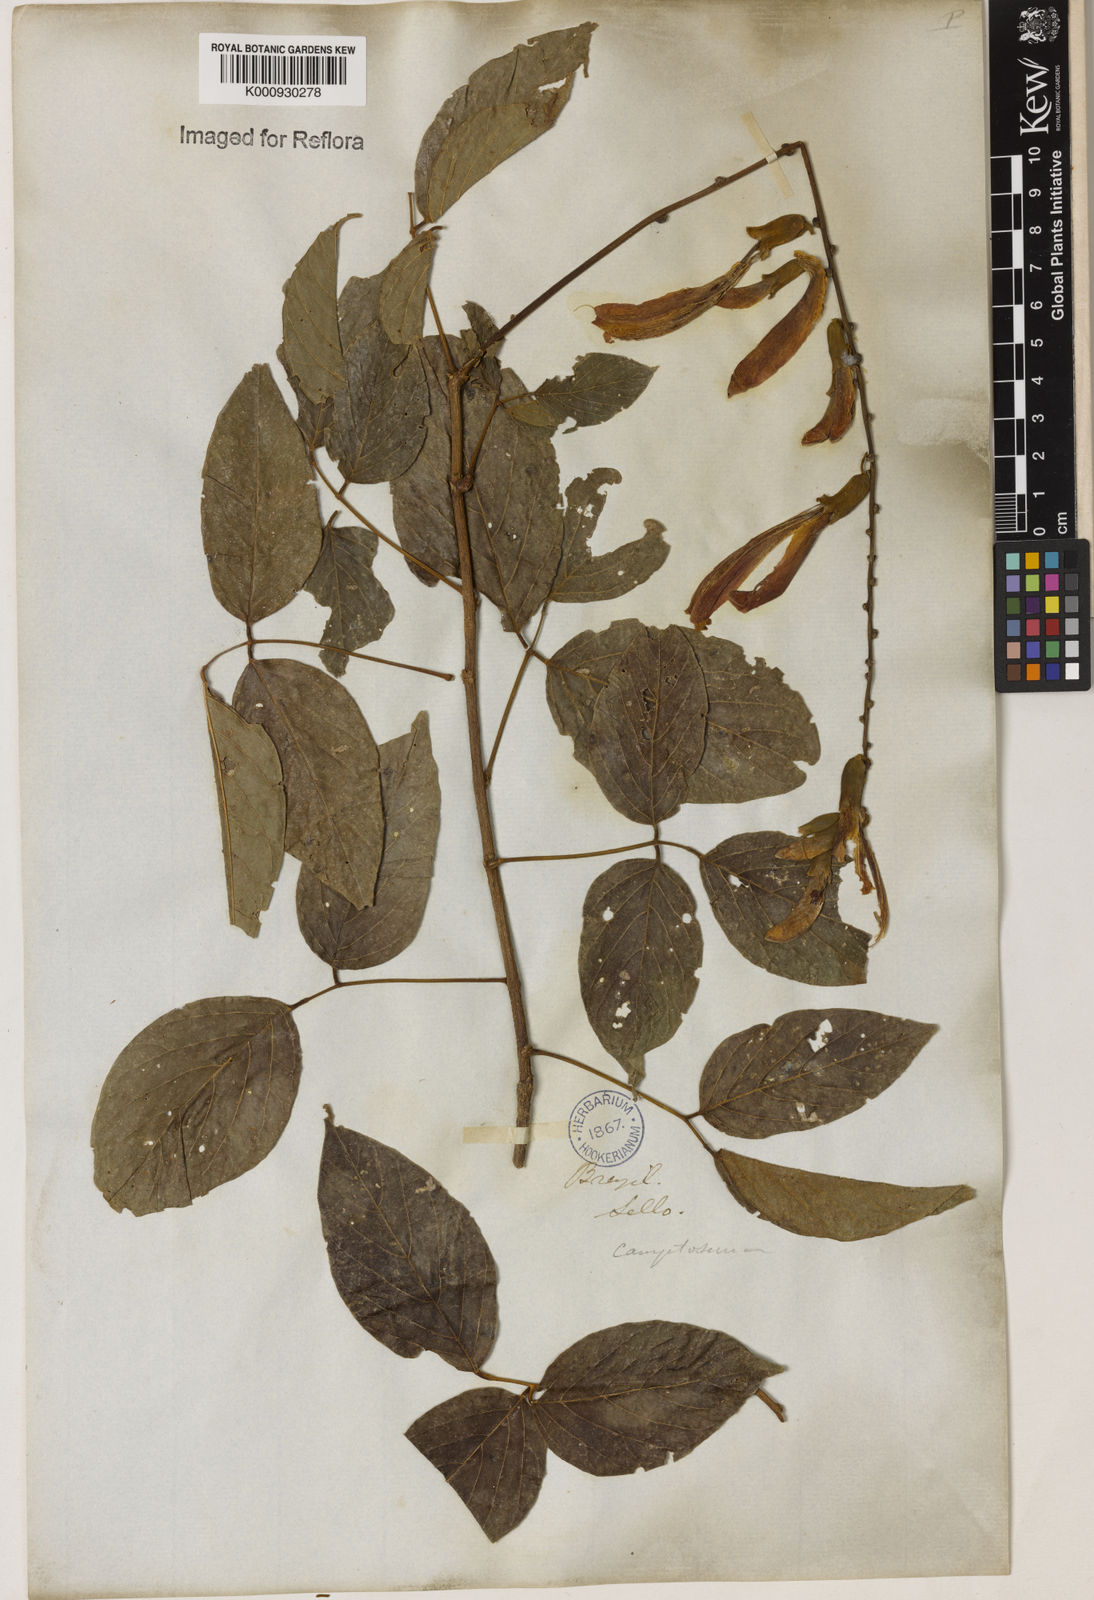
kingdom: Plantae
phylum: Tracheophyta
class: Magnoliopsida
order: Fabales
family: Fabaceae
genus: Camptosema
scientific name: Camptosema spectabile
